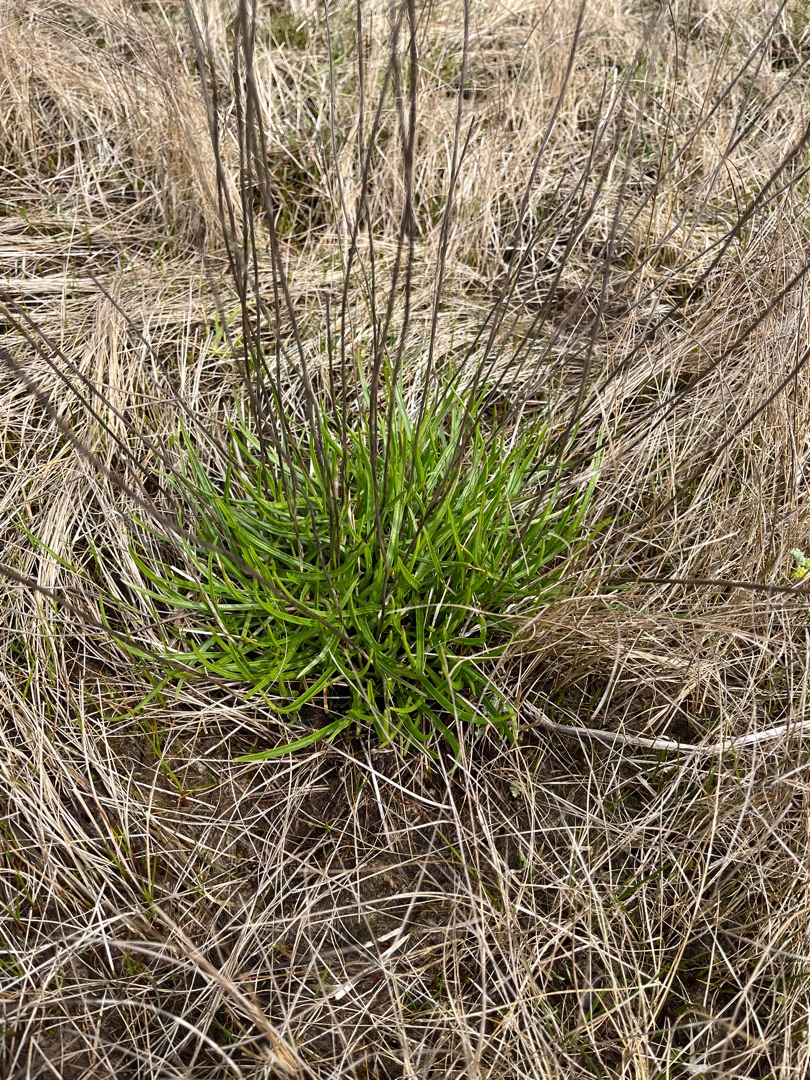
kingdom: Plantae
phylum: Tracheophyta
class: Magnoliopsida
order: Lamiales
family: Plantaginaceae
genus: Plantago
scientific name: Plantago maritima
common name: Strand-vejbred
